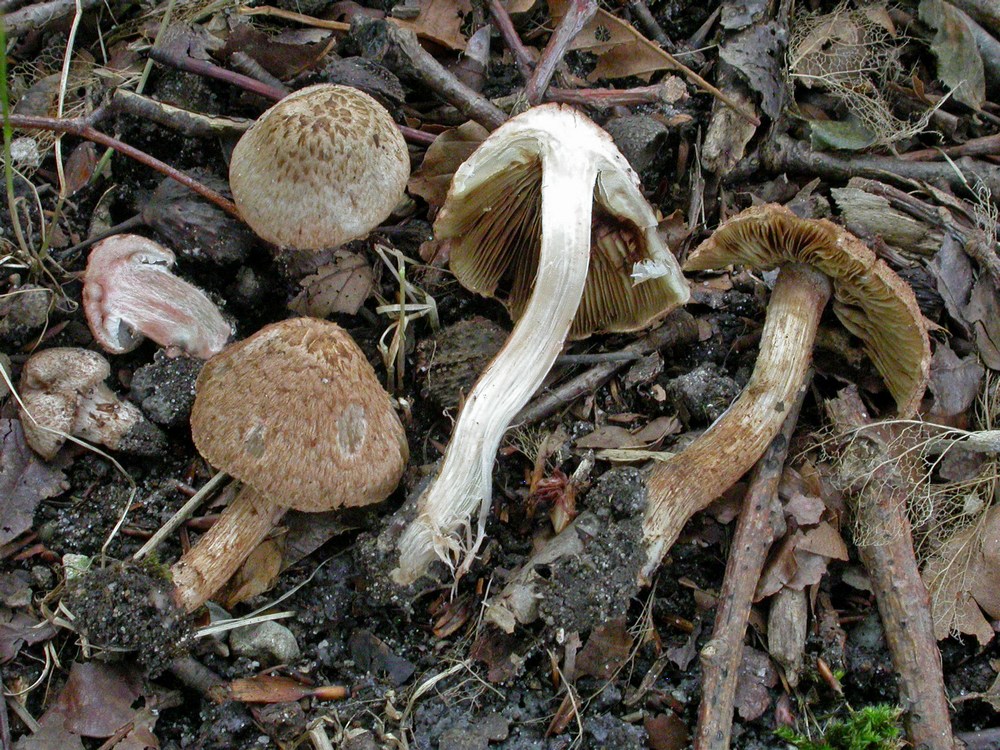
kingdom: Fungi
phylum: Basidiomycota
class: Agaricomycetes
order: Agaricales
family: Inocybaceae
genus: Inosperma
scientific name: Inosperma bongardii
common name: Bongards trævlhat
